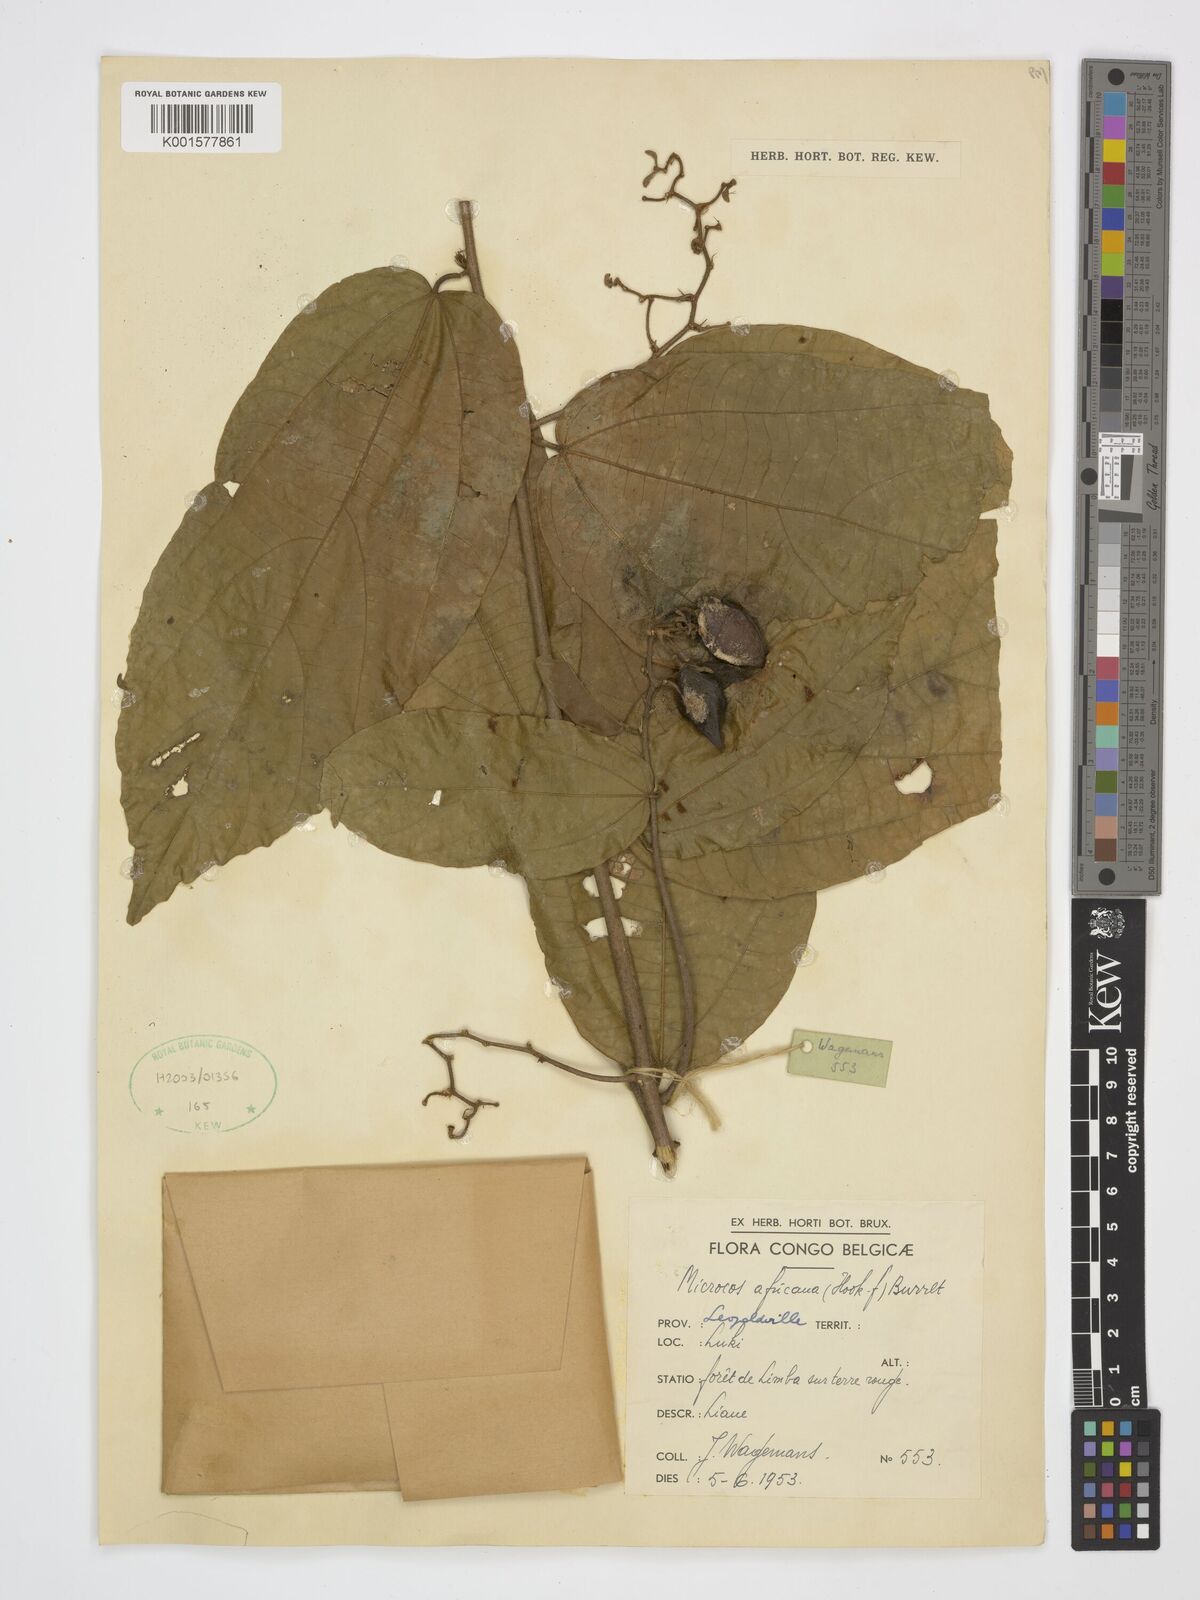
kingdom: Plantae
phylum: Tracheophyta
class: Magnoliopsida
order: Malvales
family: Malvaceae
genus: Microcos
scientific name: Microcos africana
